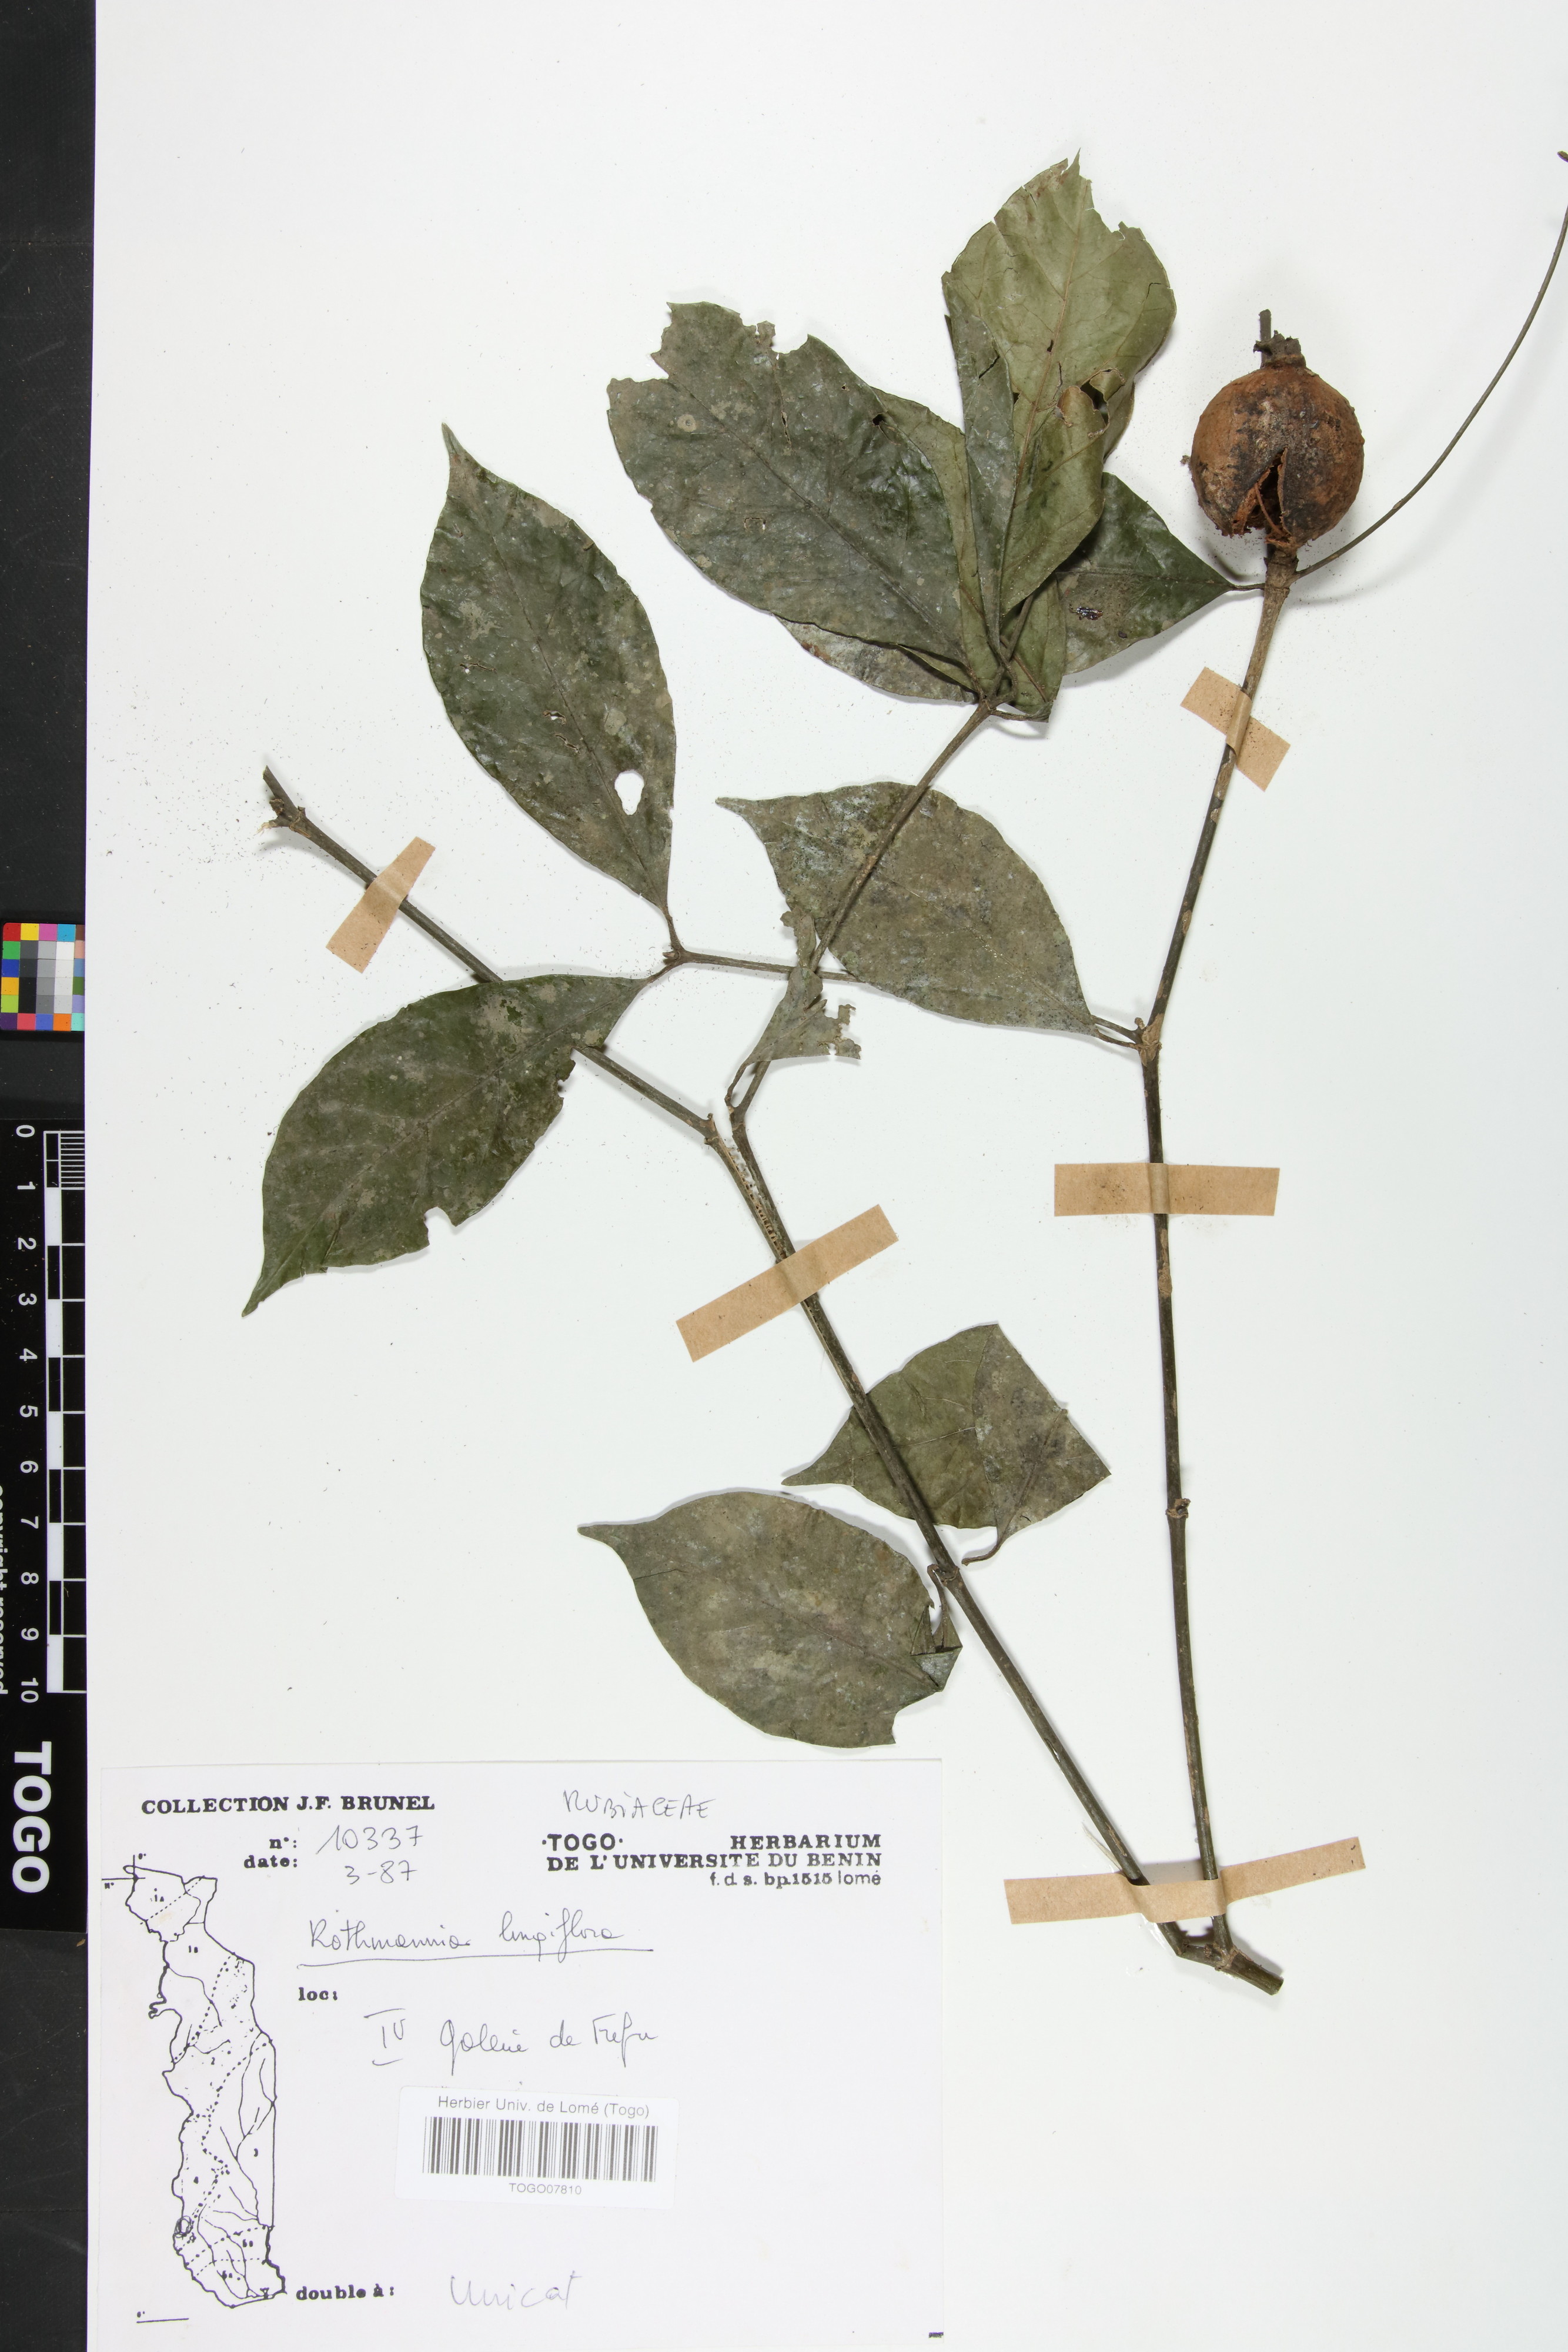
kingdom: Plantae
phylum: Tracheophyta
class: Magnoliopsida
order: Gentianales
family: Rubiaceae
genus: Rothmannia
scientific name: Rothmannia longiflora
